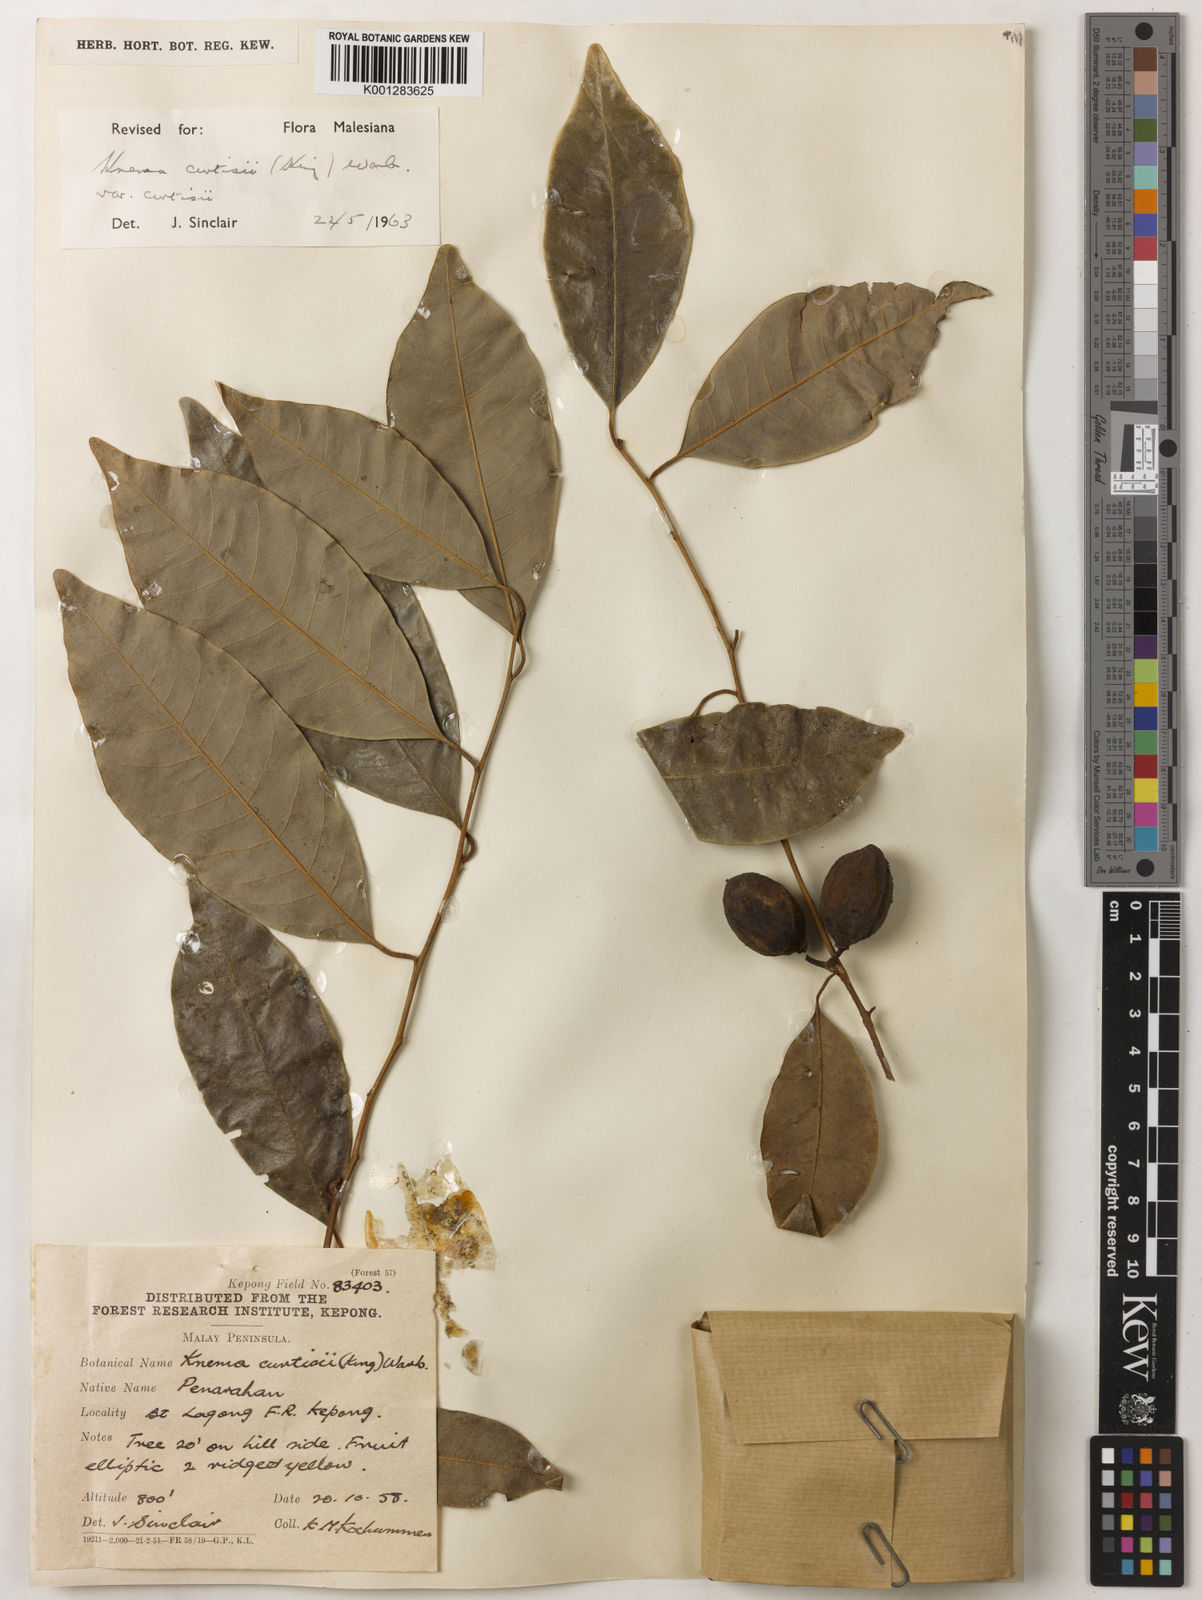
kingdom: Plantae
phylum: Tracheophyta
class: Magnoliopsida
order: Magnoliales
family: Myristicaceae
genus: Knema
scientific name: Knema curtisii
